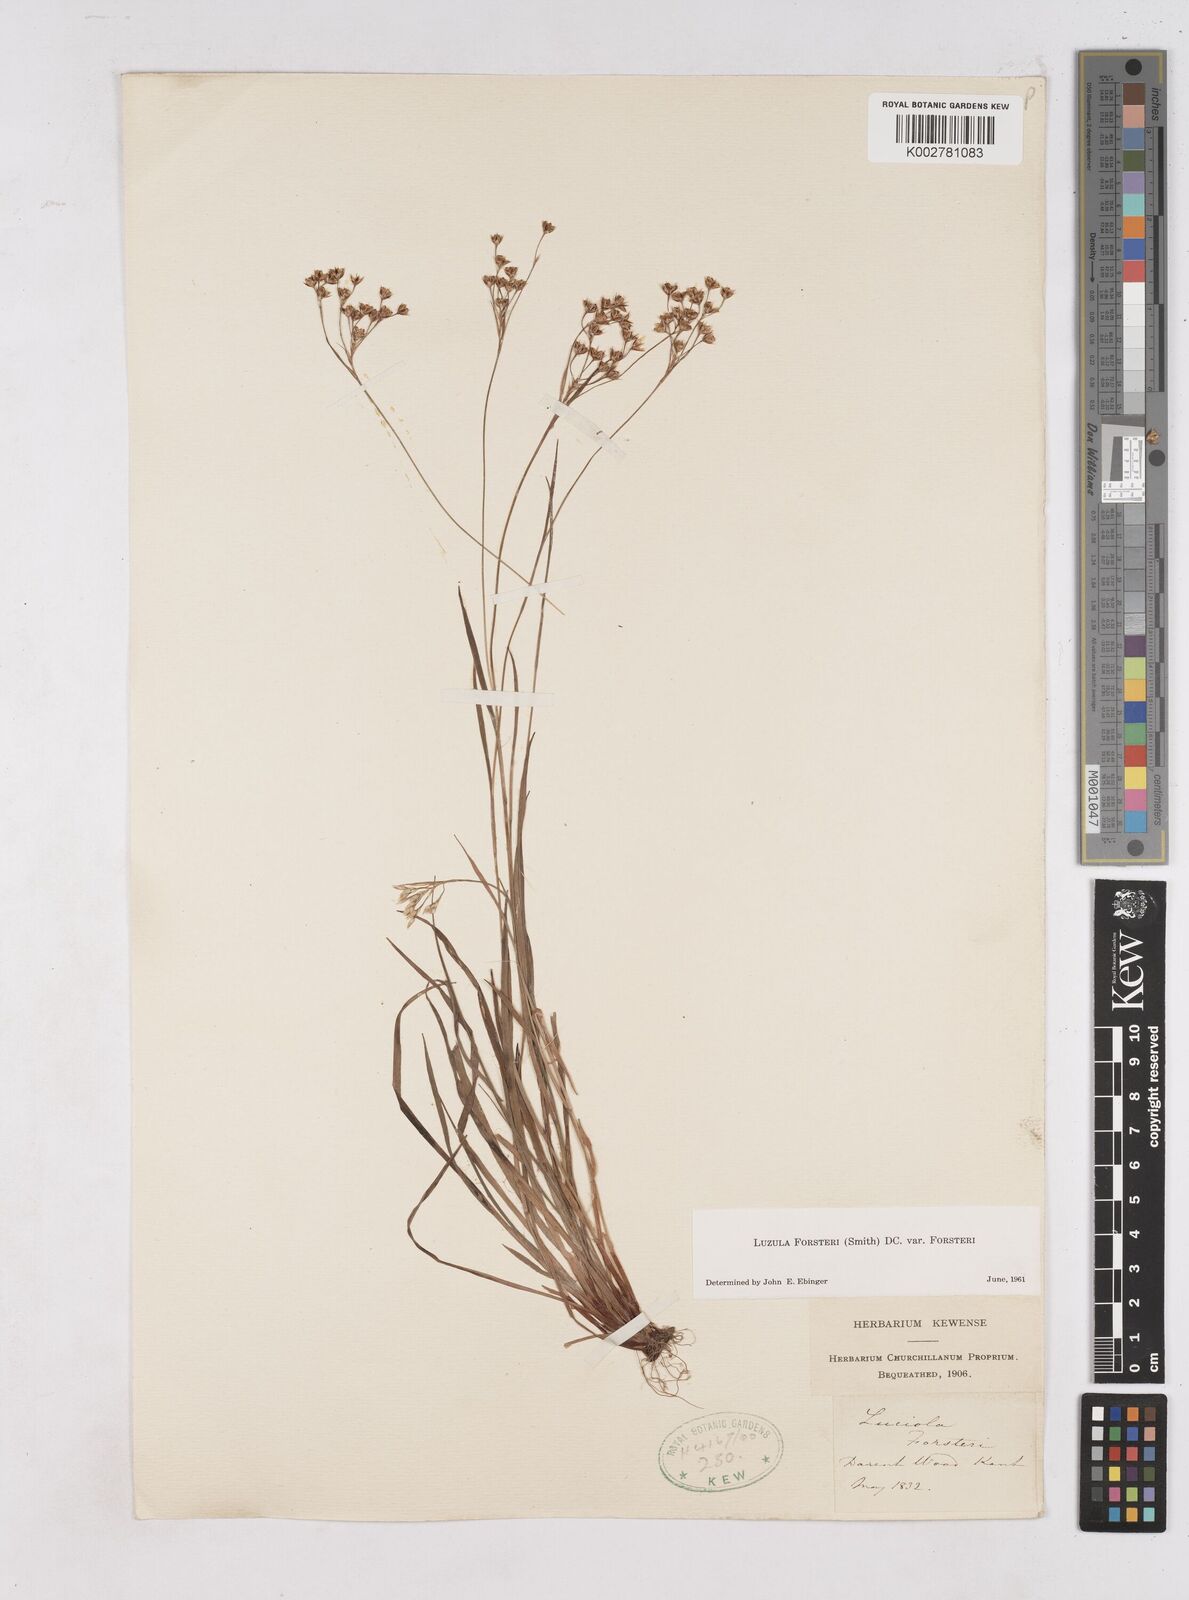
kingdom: Plantae
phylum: Tracheophyta
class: Liliopsida
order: Poales
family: Juncaceae
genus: Luzula
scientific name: Luzula forsteri
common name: Southern wood-rush
